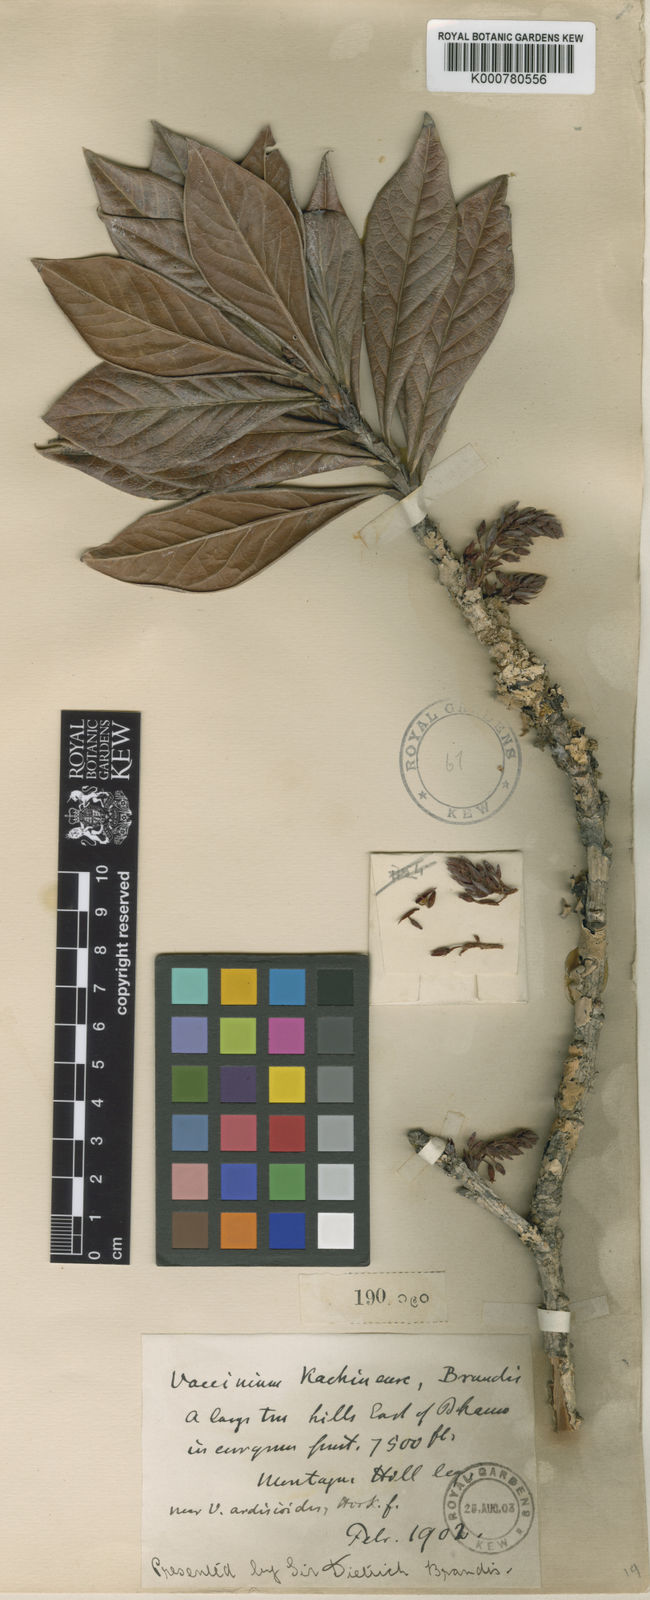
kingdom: Plantae
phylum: Tracheophyta
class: Magnoliopsida
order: Ericales
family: Ericaceae
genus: Vaccinium
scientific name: Vaccinium kachinense
